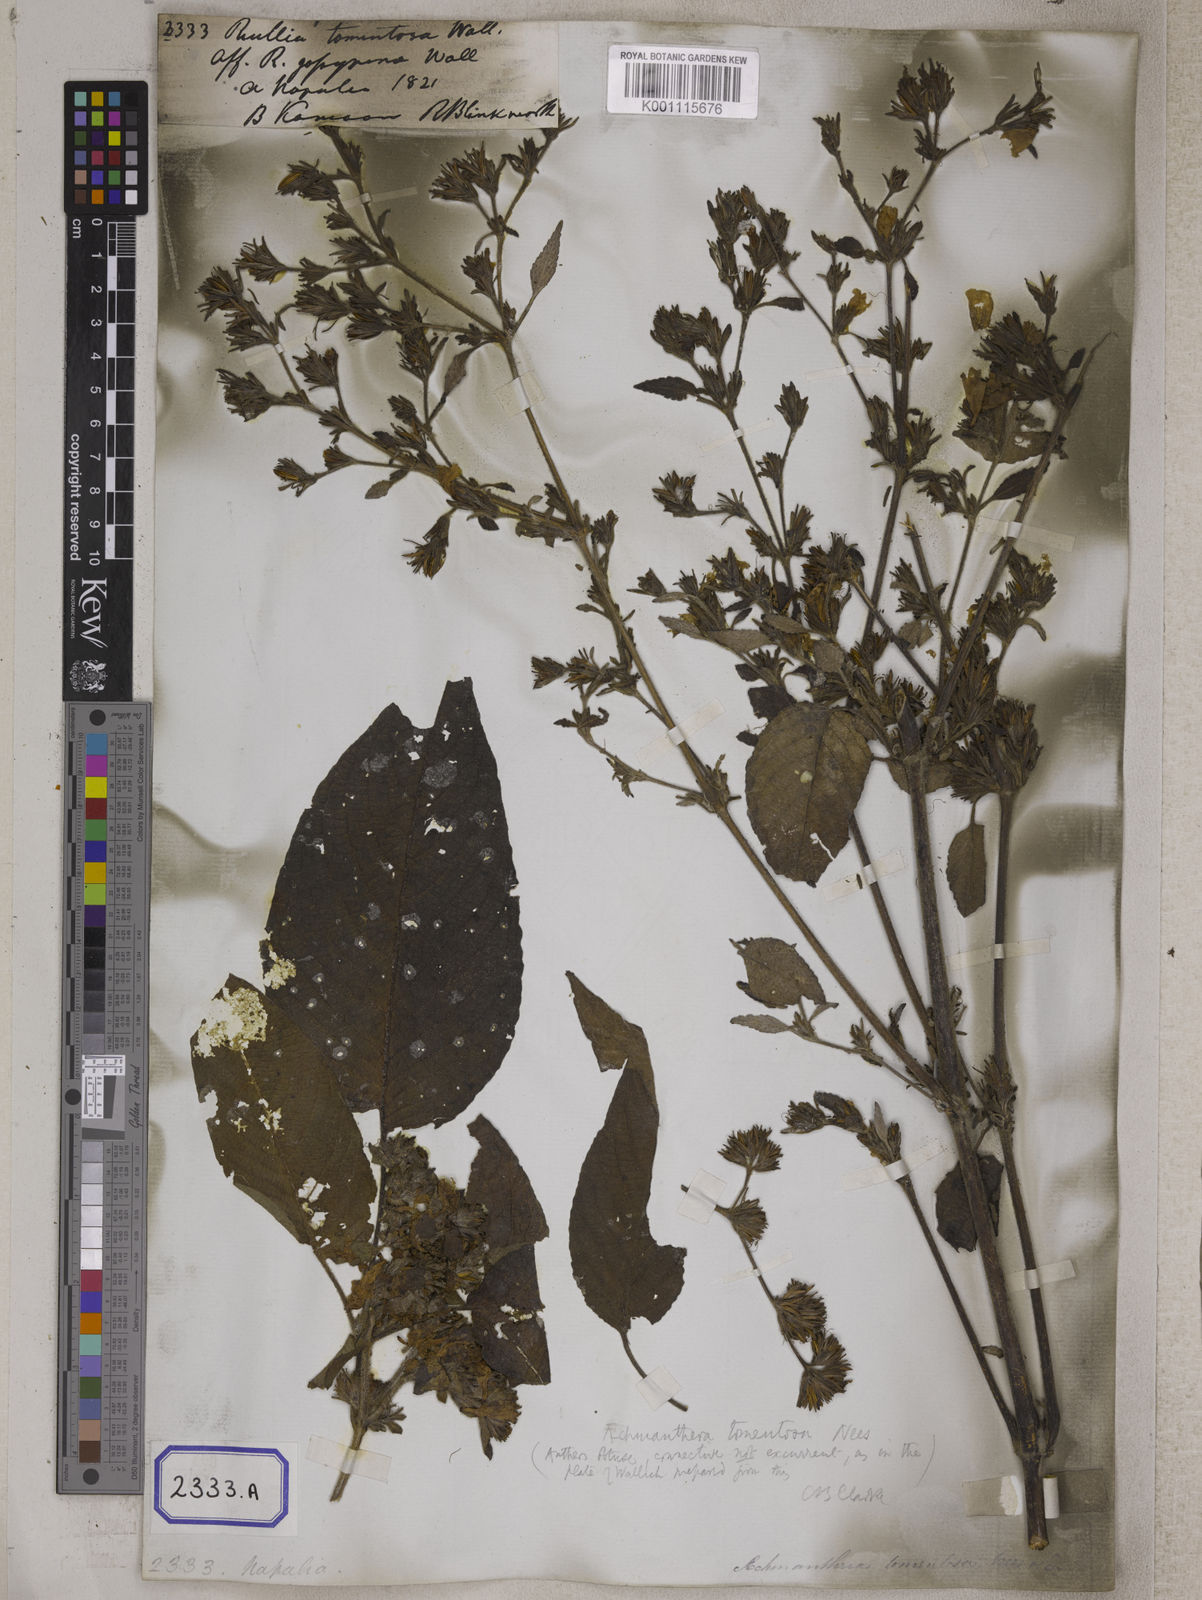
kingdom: Plantae
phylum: Tracheophyta
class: Magnoliopsida
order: Lamiales
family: Acanthaceae
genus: Strobilanthes
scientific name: Strobilanthes tomentosa
